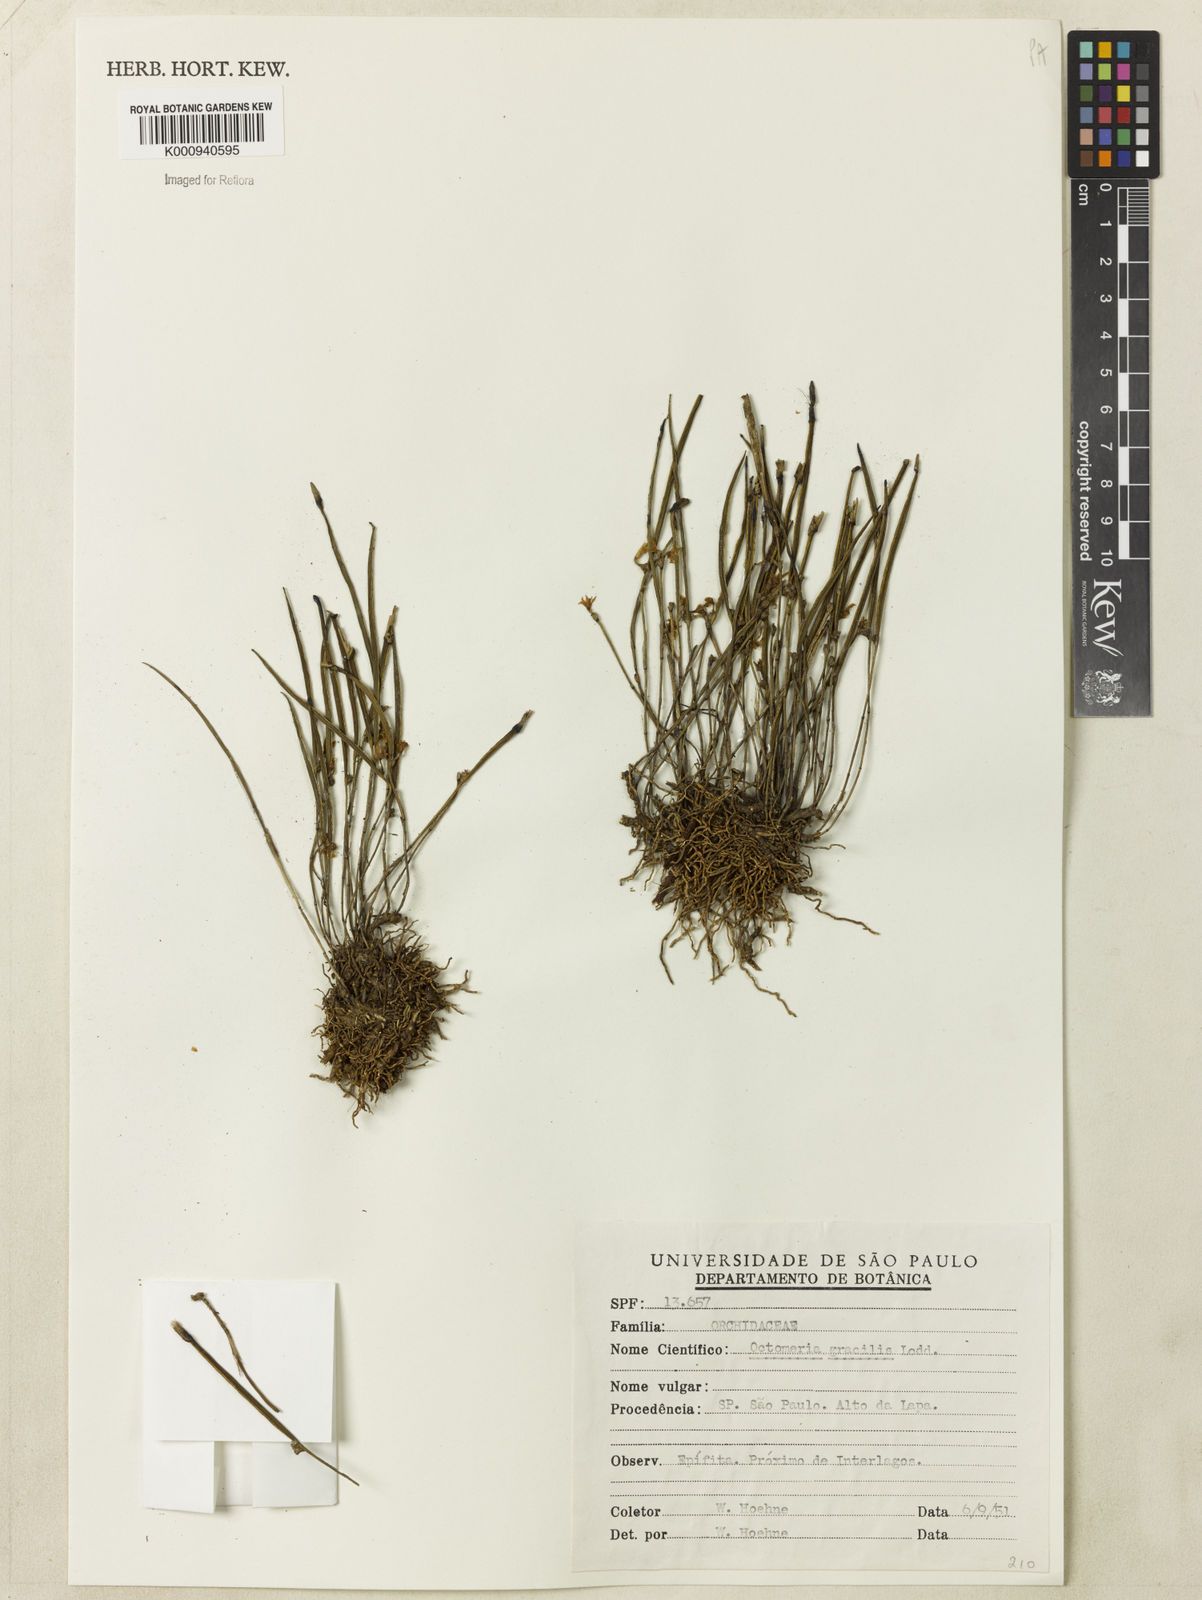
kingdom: Plantae
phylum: Tracheophyta
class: Liliopsida
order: Asparagales
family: Orchidaceae
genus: Octomeria
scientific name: Octomeria rodriguesii
